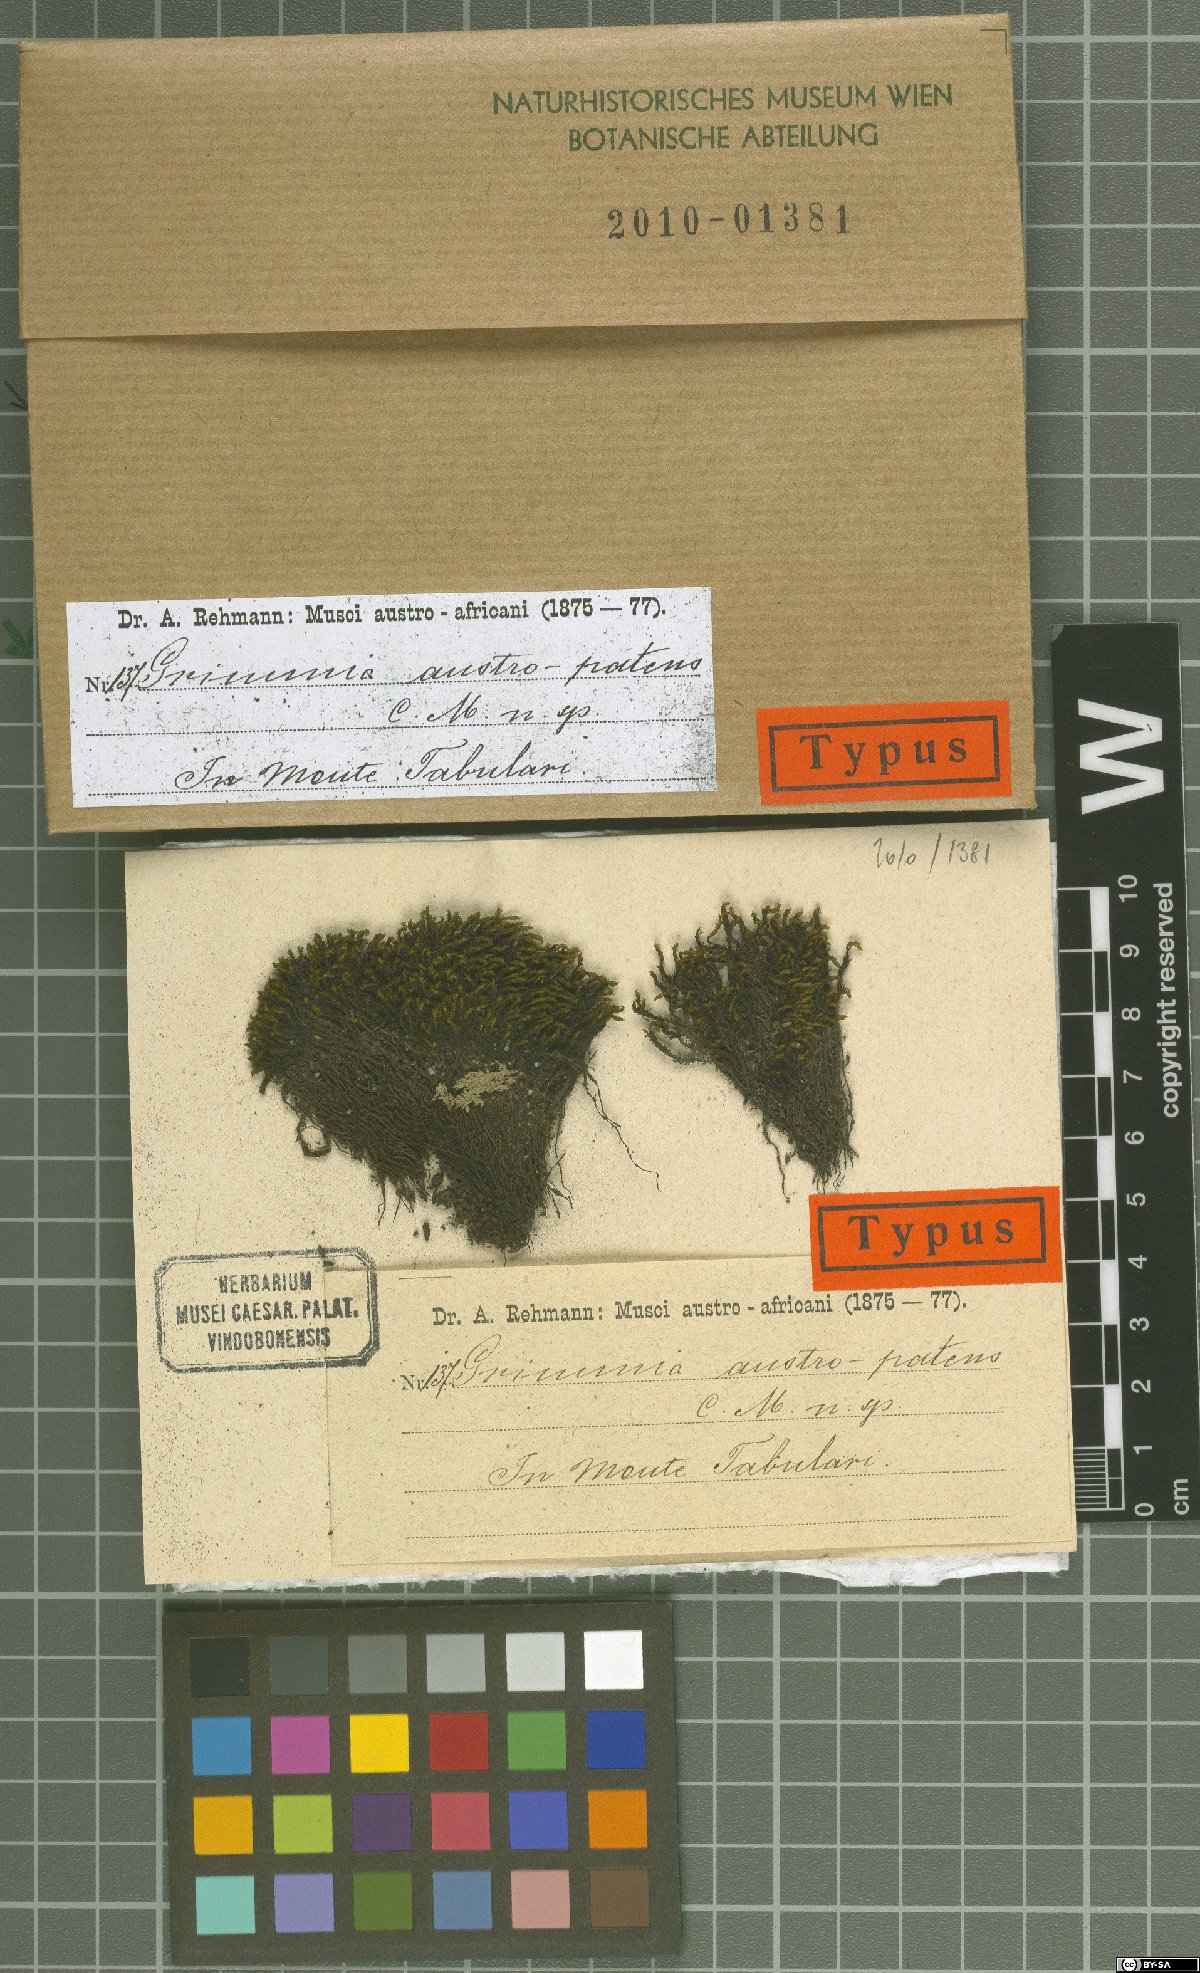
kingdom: Plantae
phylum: Bryophyta
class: Bryopsida
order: Grimmiales
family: Grimmiaceae
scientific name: Grimmiaceae
